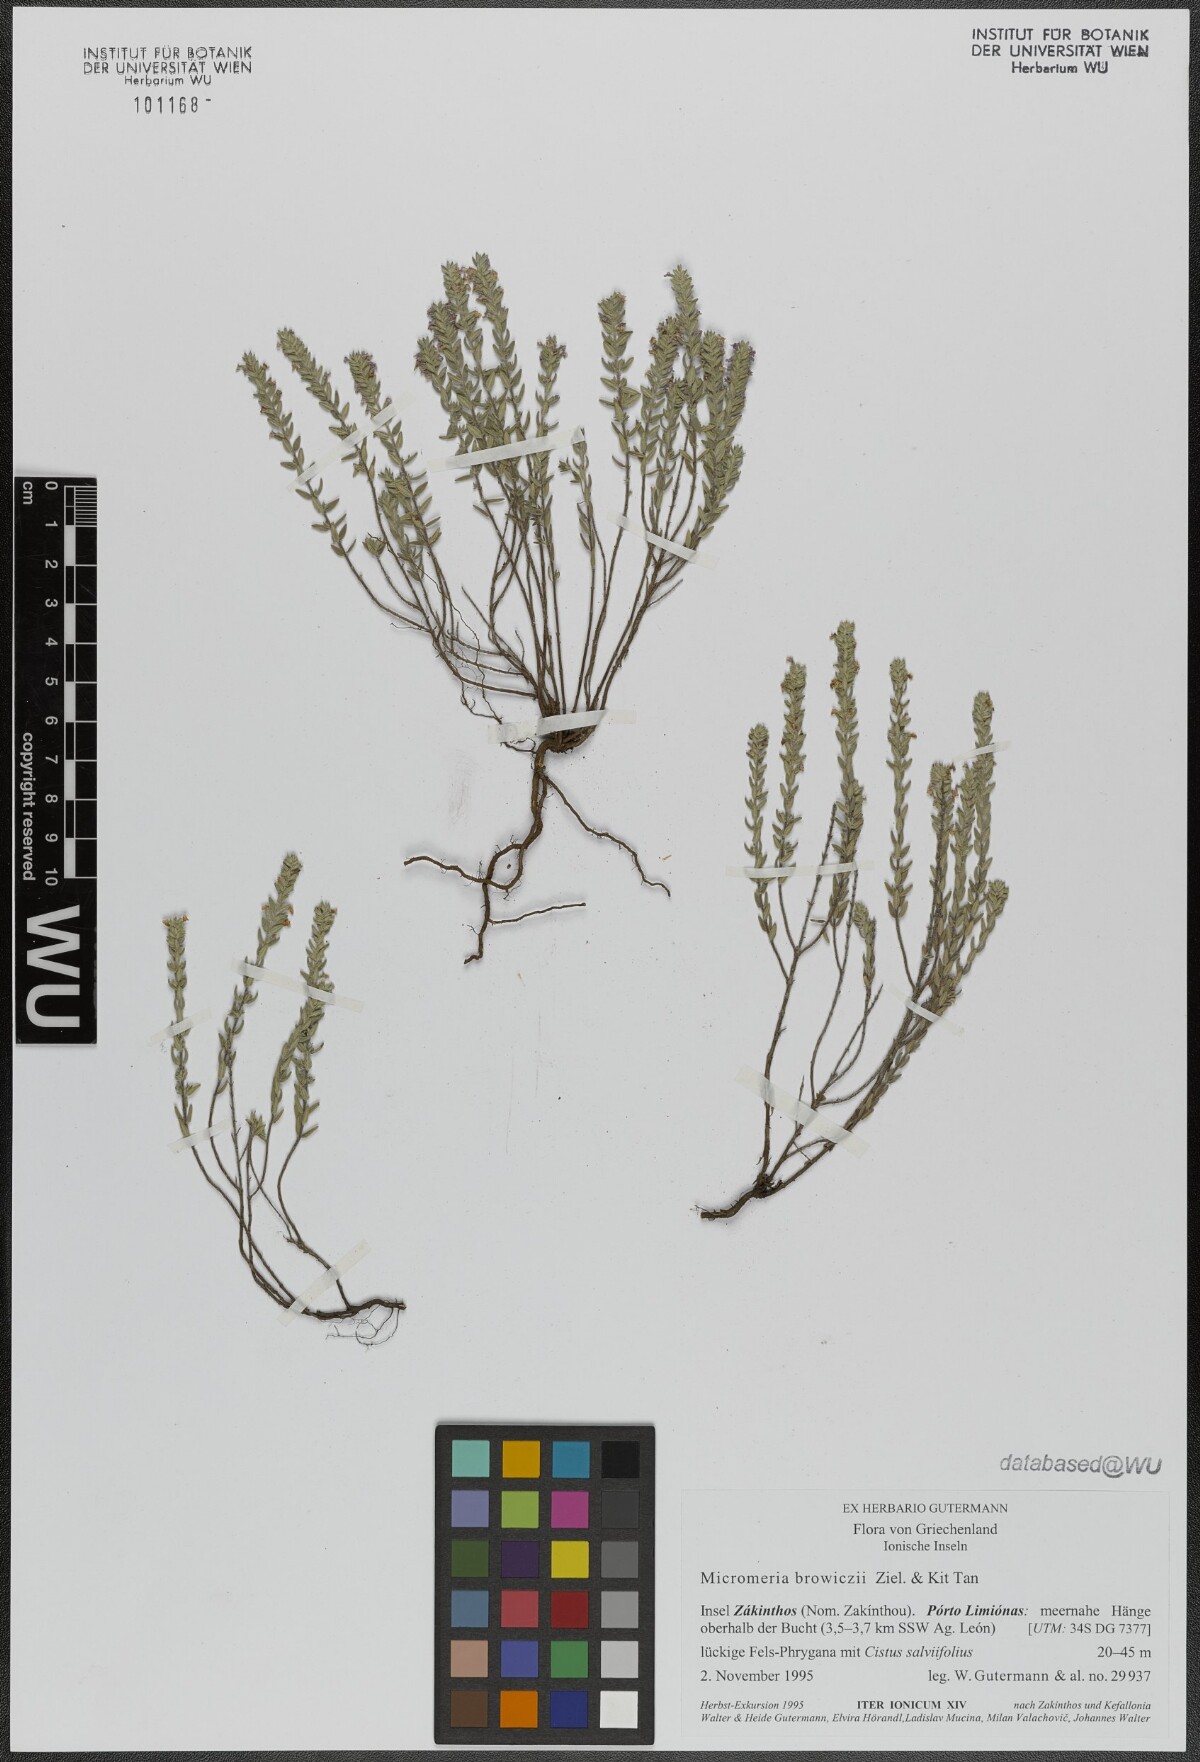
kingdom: Plantae
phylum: Tracheophyta
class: Magnoliopsida
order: Lamiales
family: Lamiaceae
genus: Micromeria
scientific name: Micromeria browiczii
